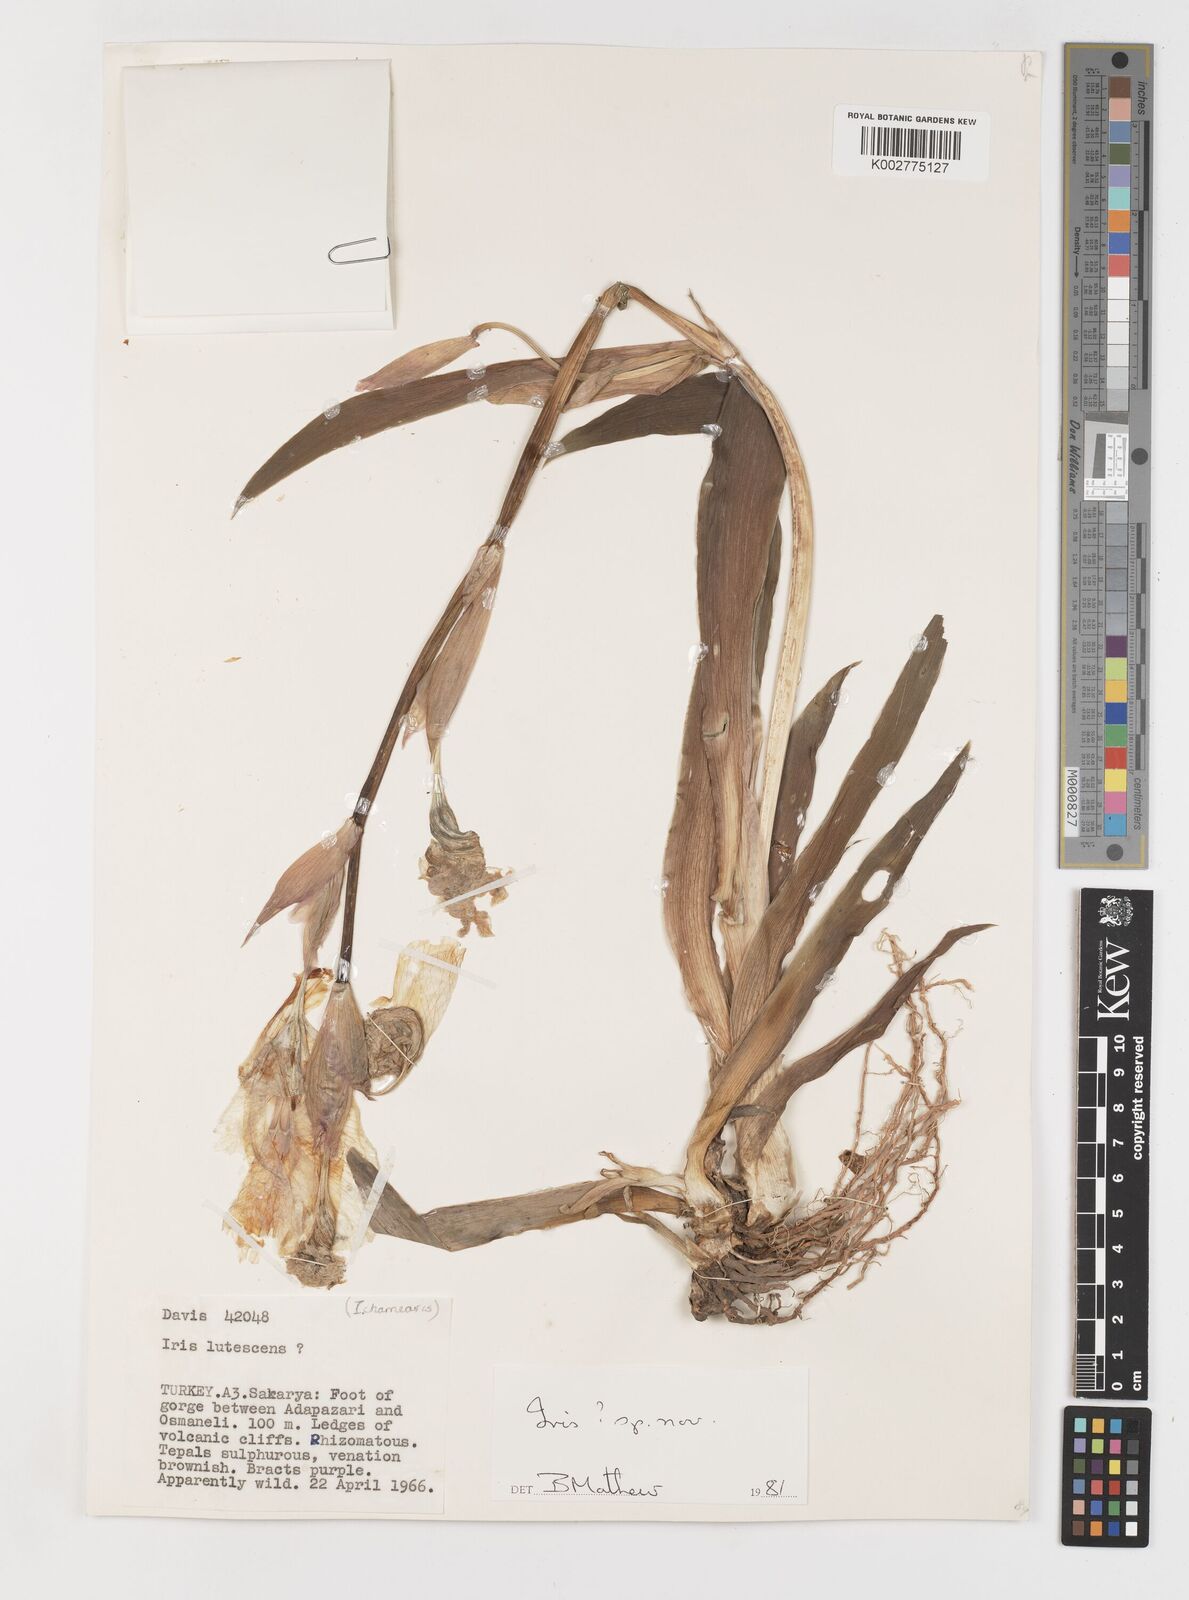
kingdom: Plantae
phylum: Tracheophyta
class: Liliopsida
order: Asparagales
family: Iridaceae
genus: Iris
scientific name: Iris purpureobractea
